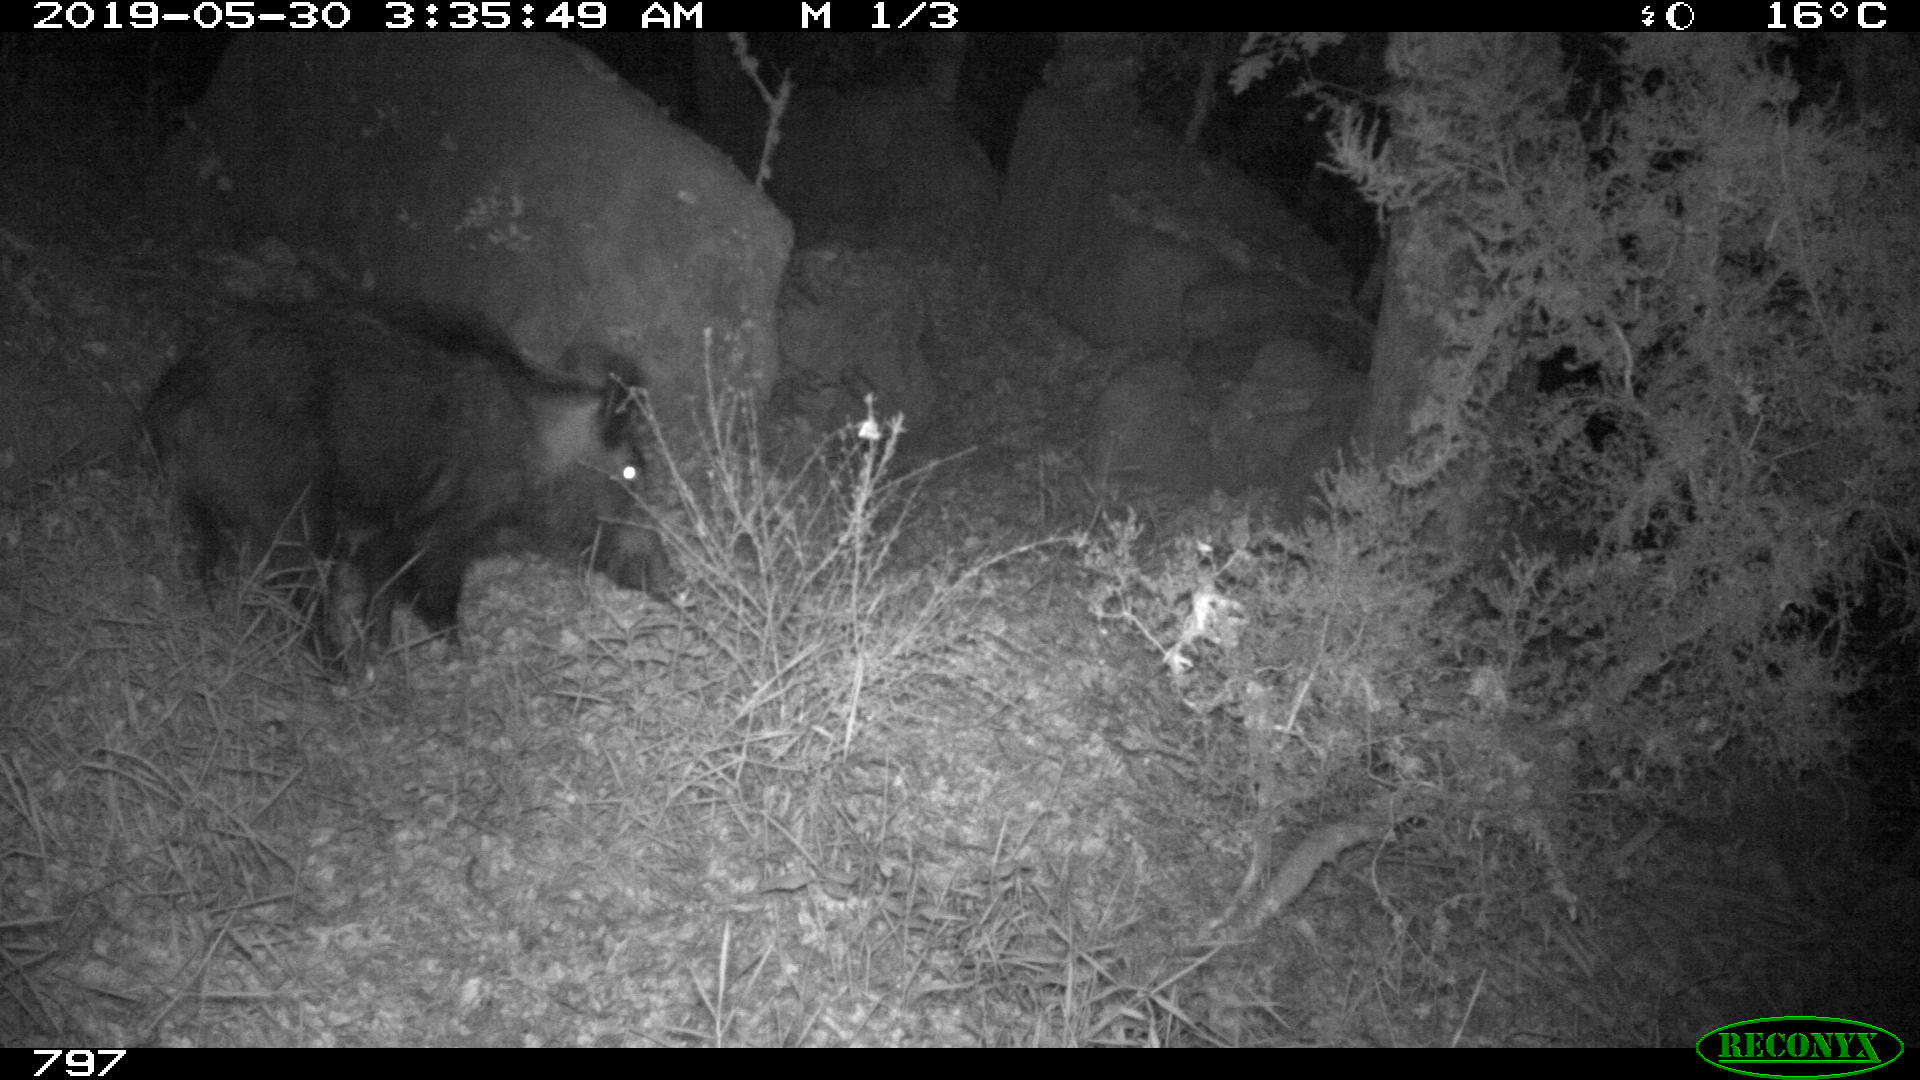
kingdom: Animalia
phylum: Chordata
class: Mammalia
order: Artiodactyla
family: Suidae
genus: Sus
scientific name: Sus scrofa
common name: Wild boar
